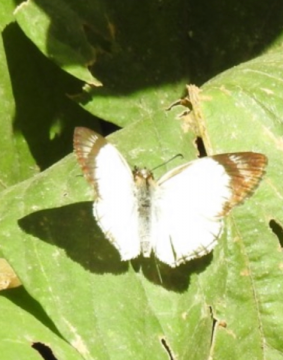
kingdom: Animalia
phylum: Arthropoda
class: Insecta
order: Lepidoptera
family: Hesperiidae
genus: Heliopetes
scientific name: Heliopetes alana
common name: Alana White-Skipper
